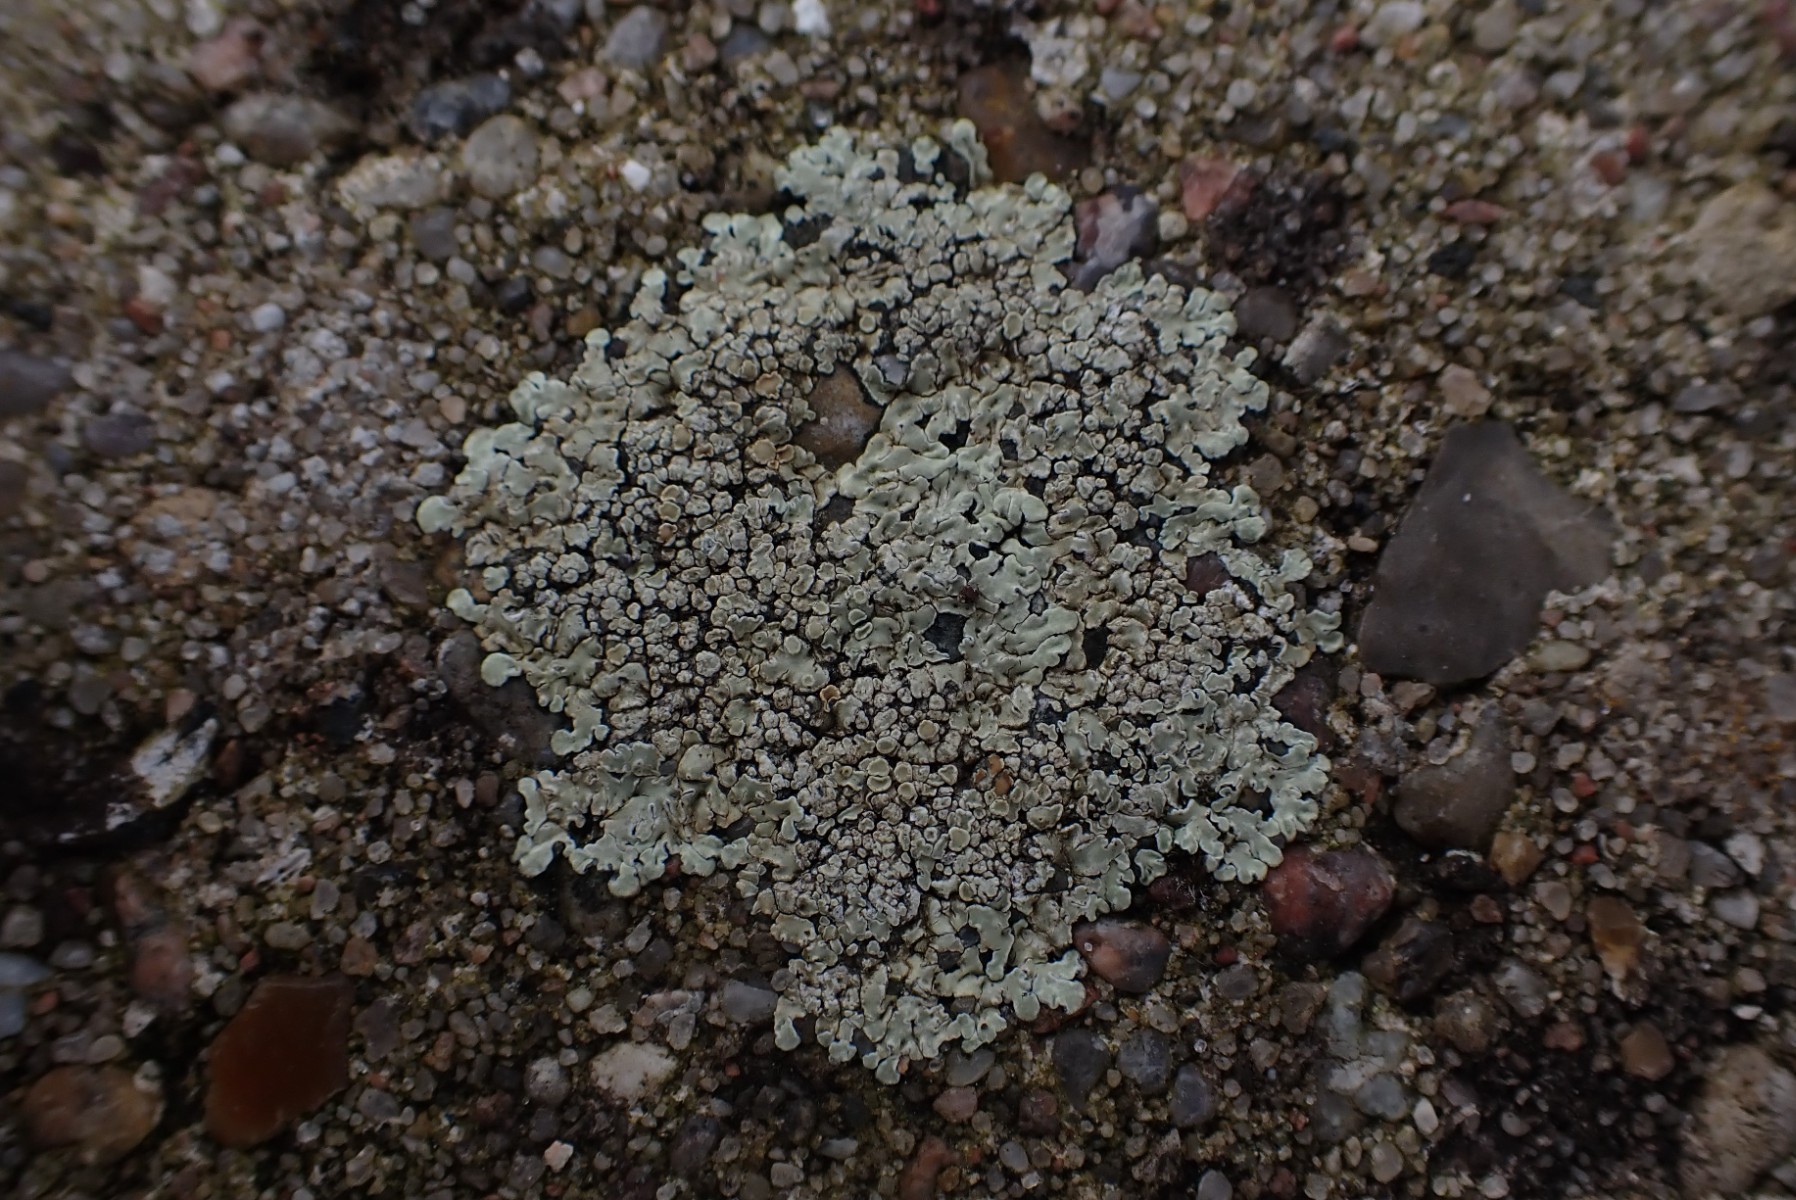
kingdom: Fungi
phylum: Ascomycota
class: Lecanoromycetes
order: Lecanorales
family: Lecanoraceae
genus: Protoparmeliopsis
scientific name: Protoparmeliopsis muralis
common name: randfliget kantskivelav
